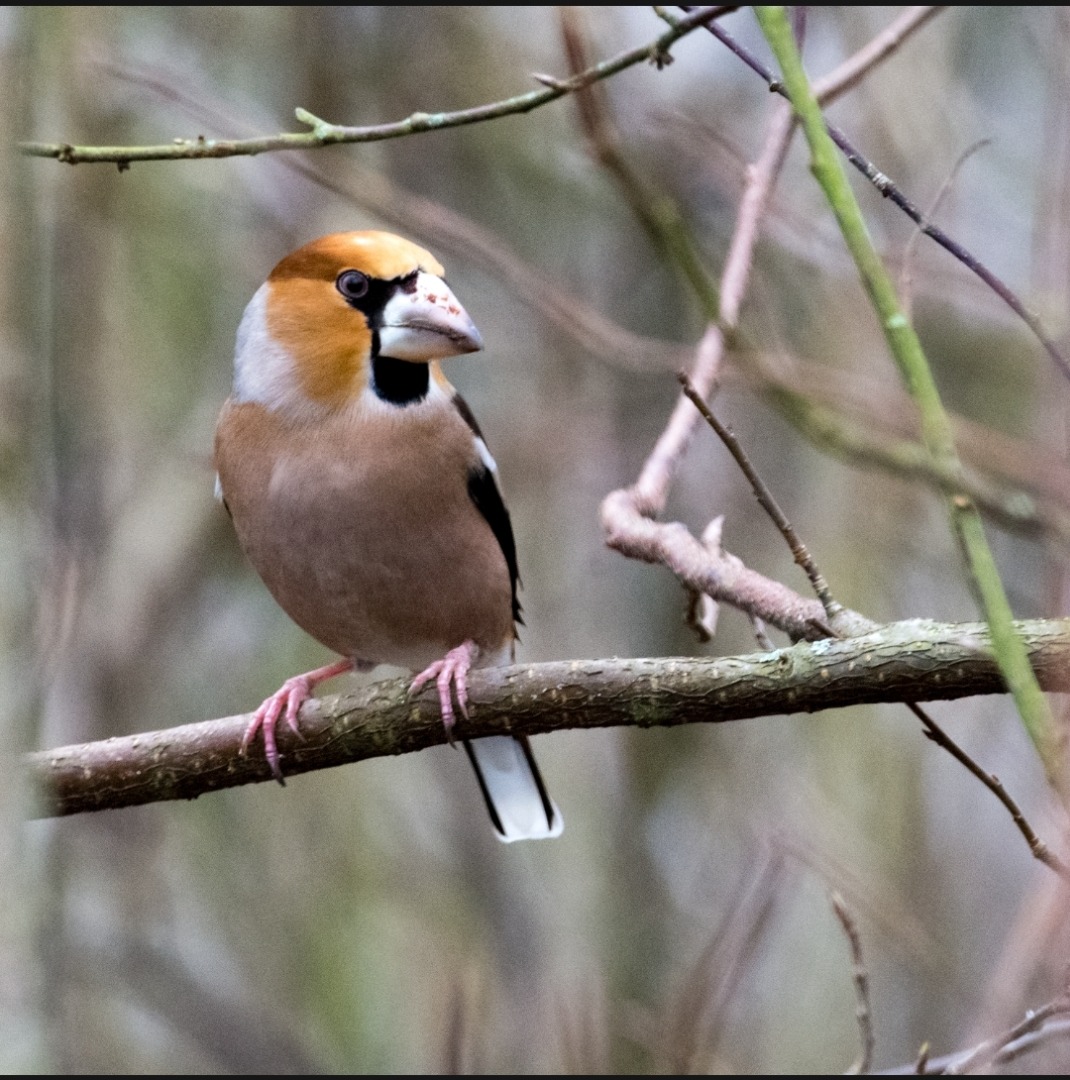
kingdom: Animalia
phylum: Chordata
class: Aves
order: Passeriformes
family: Fringillidae
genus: Coccothraustes
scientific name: Coccothraustes coccothraustes
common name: Kernebider
